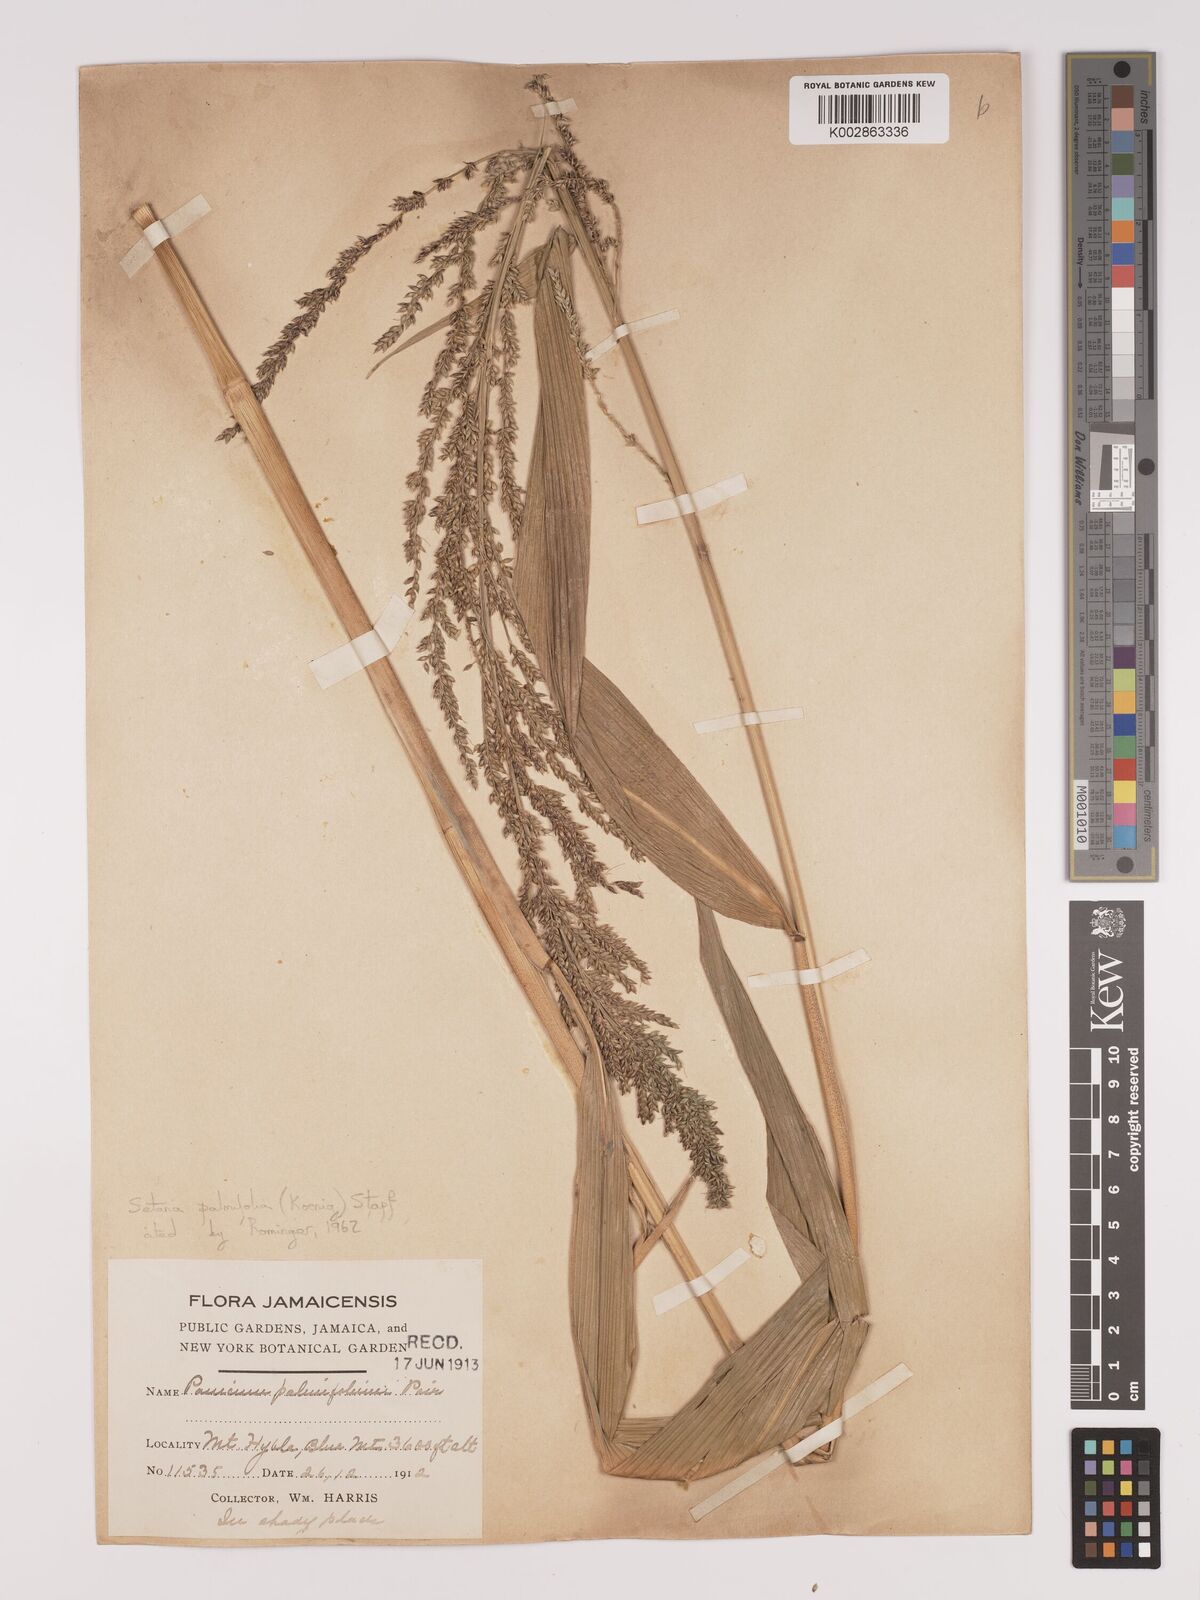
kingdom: Plantae
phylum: Tracheophyta
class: Liliopsida
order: Poales
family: Poaceae
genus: Setaria
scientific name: Setaria palmifolia
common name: Broadleaved bristlegrass
